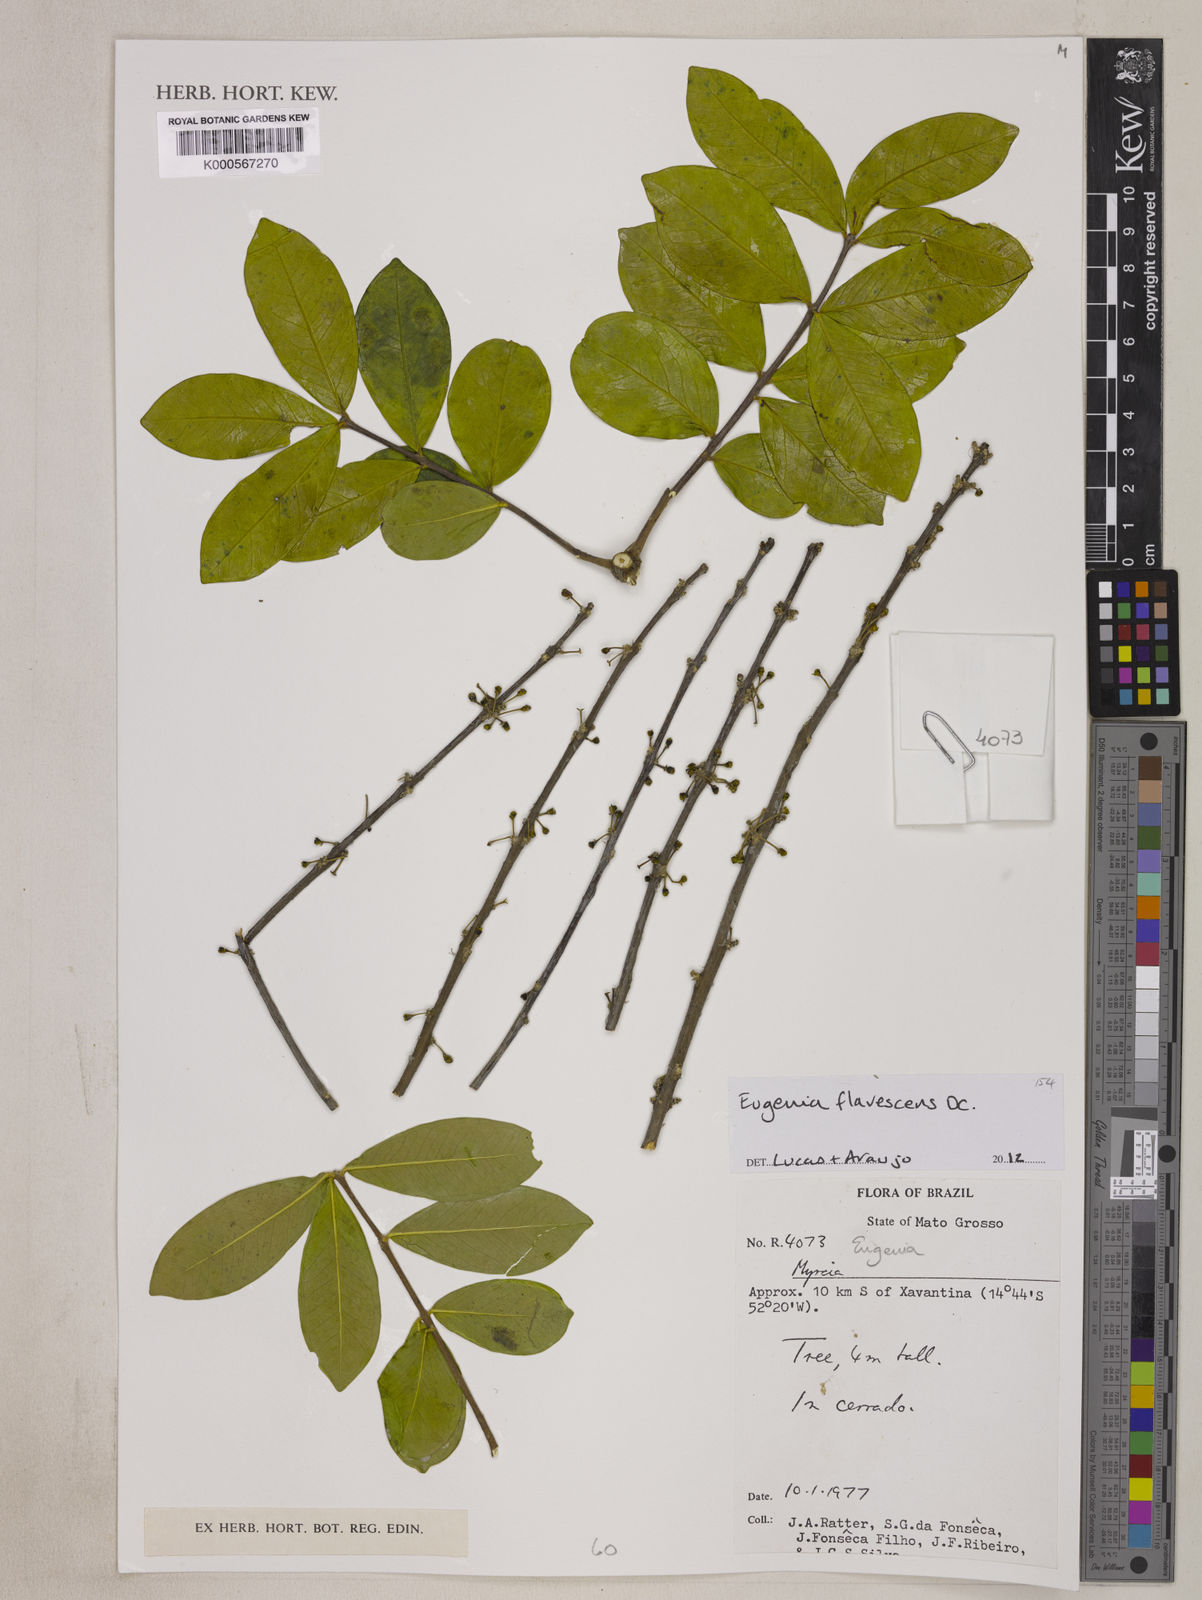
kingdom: Plantae
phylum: Tracheophyta
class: Magnoliopsida
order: Myrtales
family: Myrtaceae
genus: Eugenia
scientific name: Eugenia
